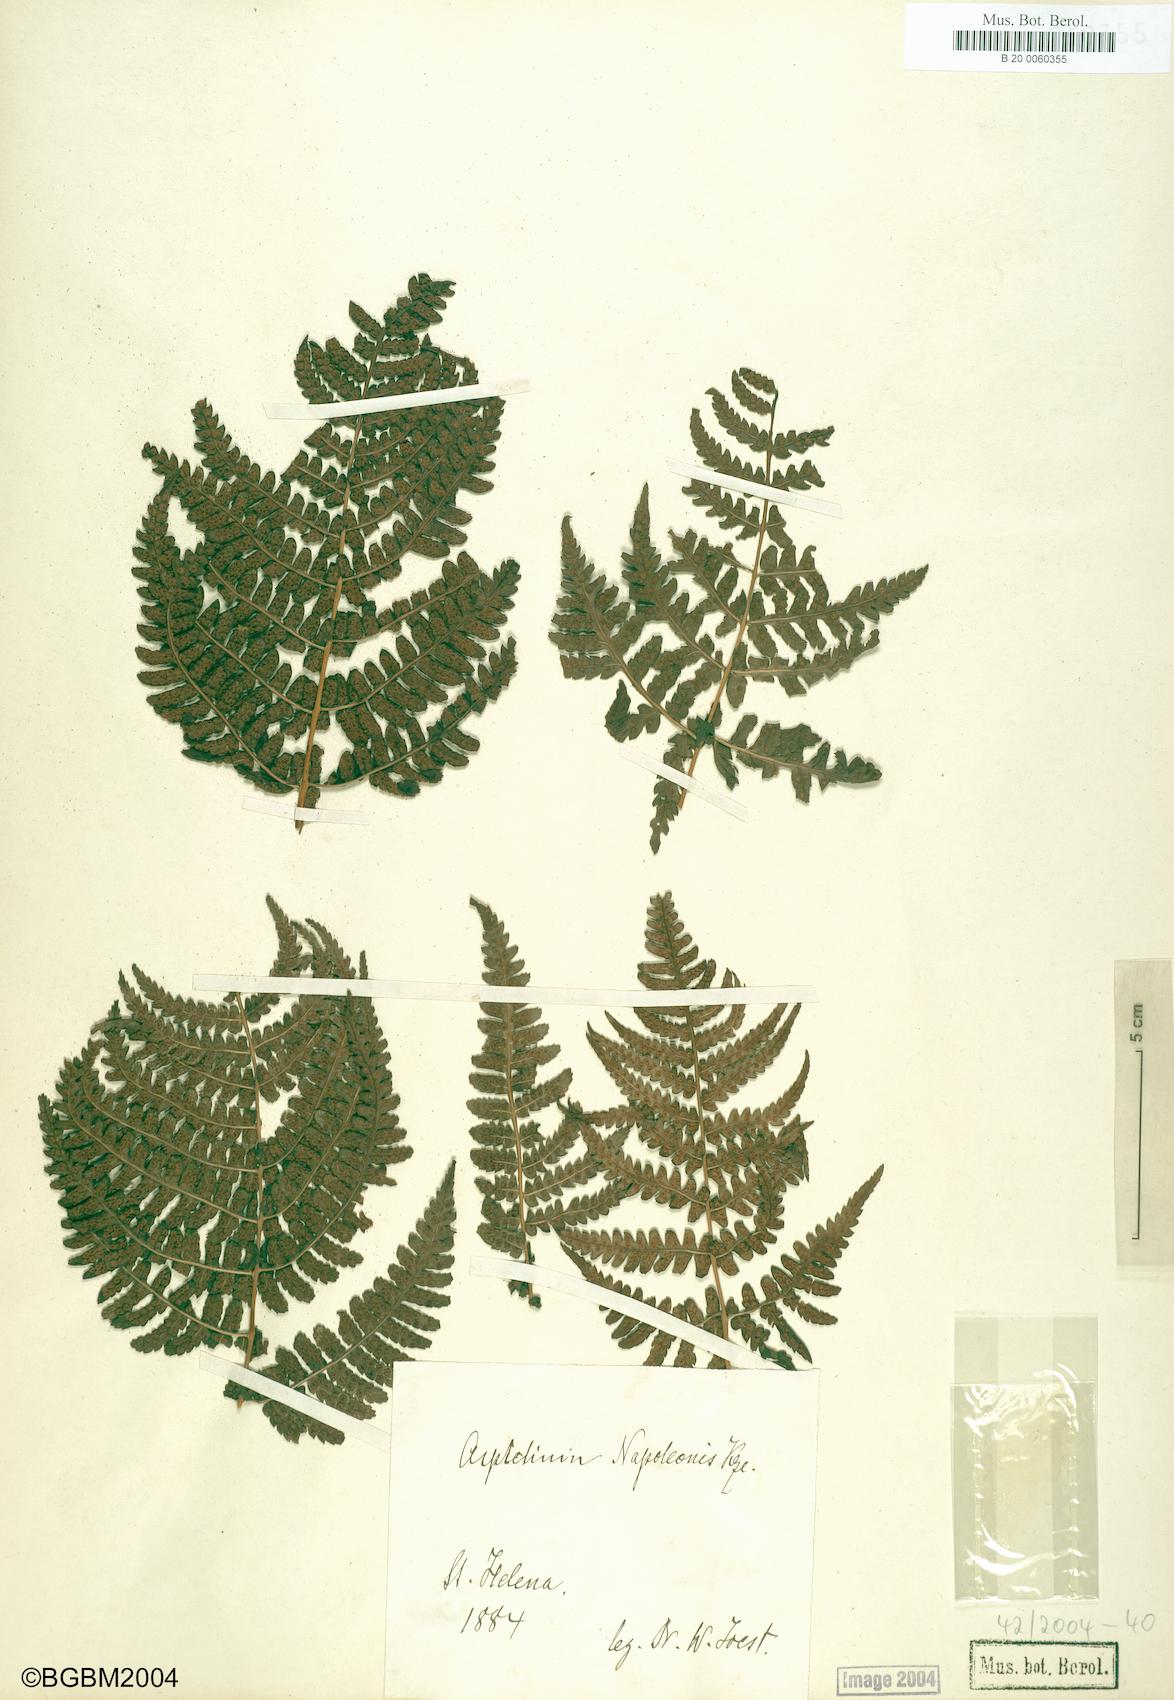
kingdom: Plantae
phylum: Tracheophyta
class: Polypodiopsida
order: Polypodiales
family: Dryopteridaceae
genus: Dryopteris
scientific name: Dryopteris napoleonis
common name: Small kidney fern
